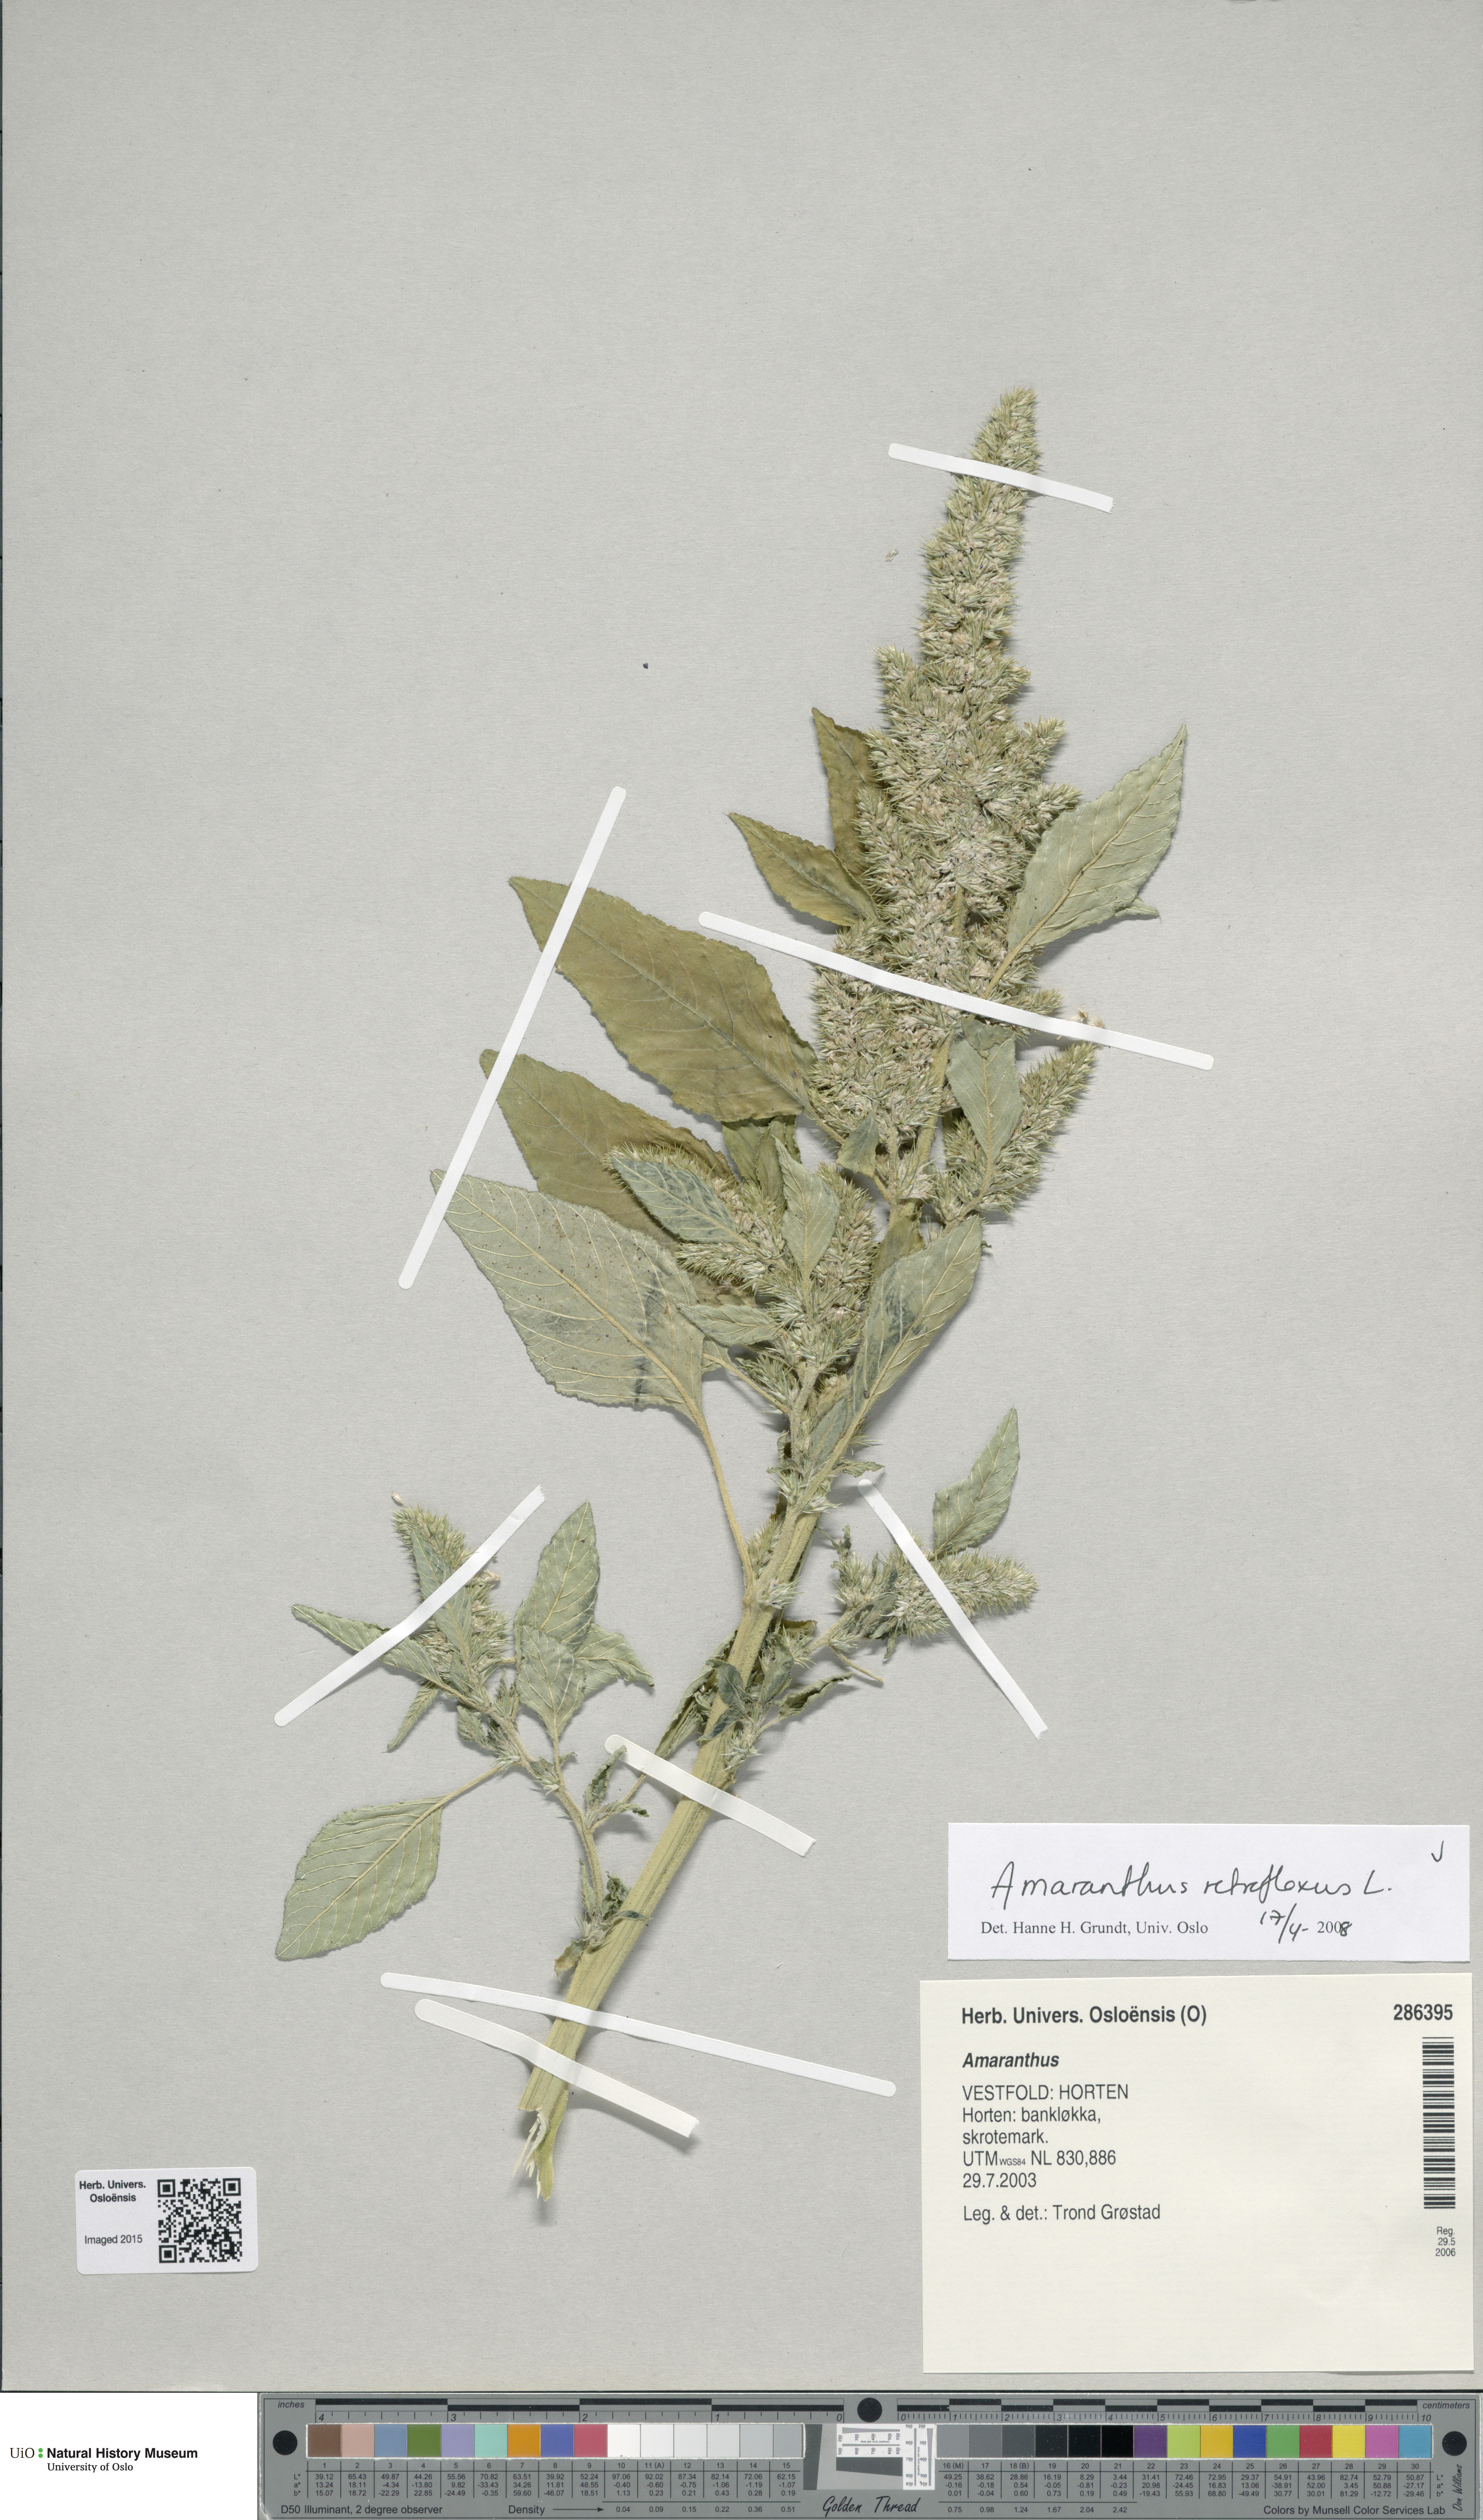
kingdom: Plantae
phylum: Tracheophyta
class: Magnoliopsida
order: Caryophyllales
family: Amaranthaceae
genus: Amaranthus
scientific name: Amaranthus retroflexus
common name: Redroot amaranth
